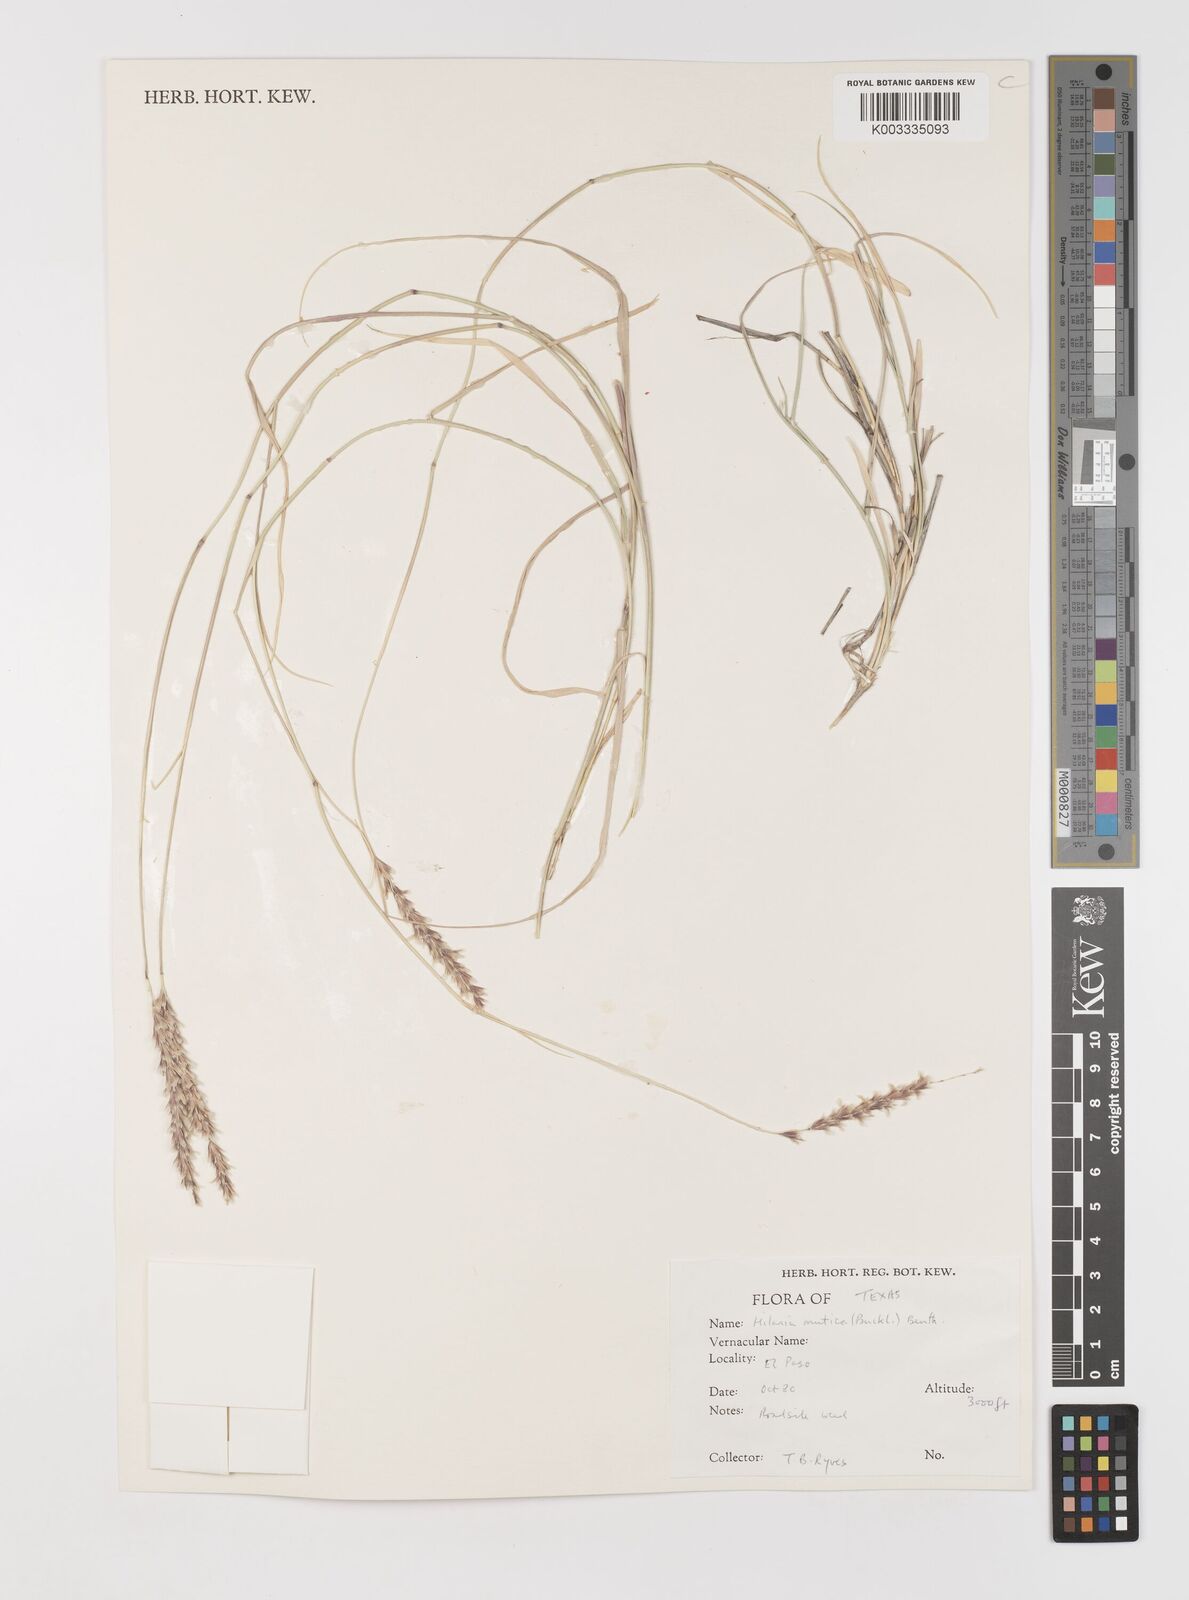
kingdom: Plantae
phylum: Tracheophyta
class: Liliopsida
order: Poales
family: Poaceae
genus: Hilaria
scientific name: Hilaria mutica
